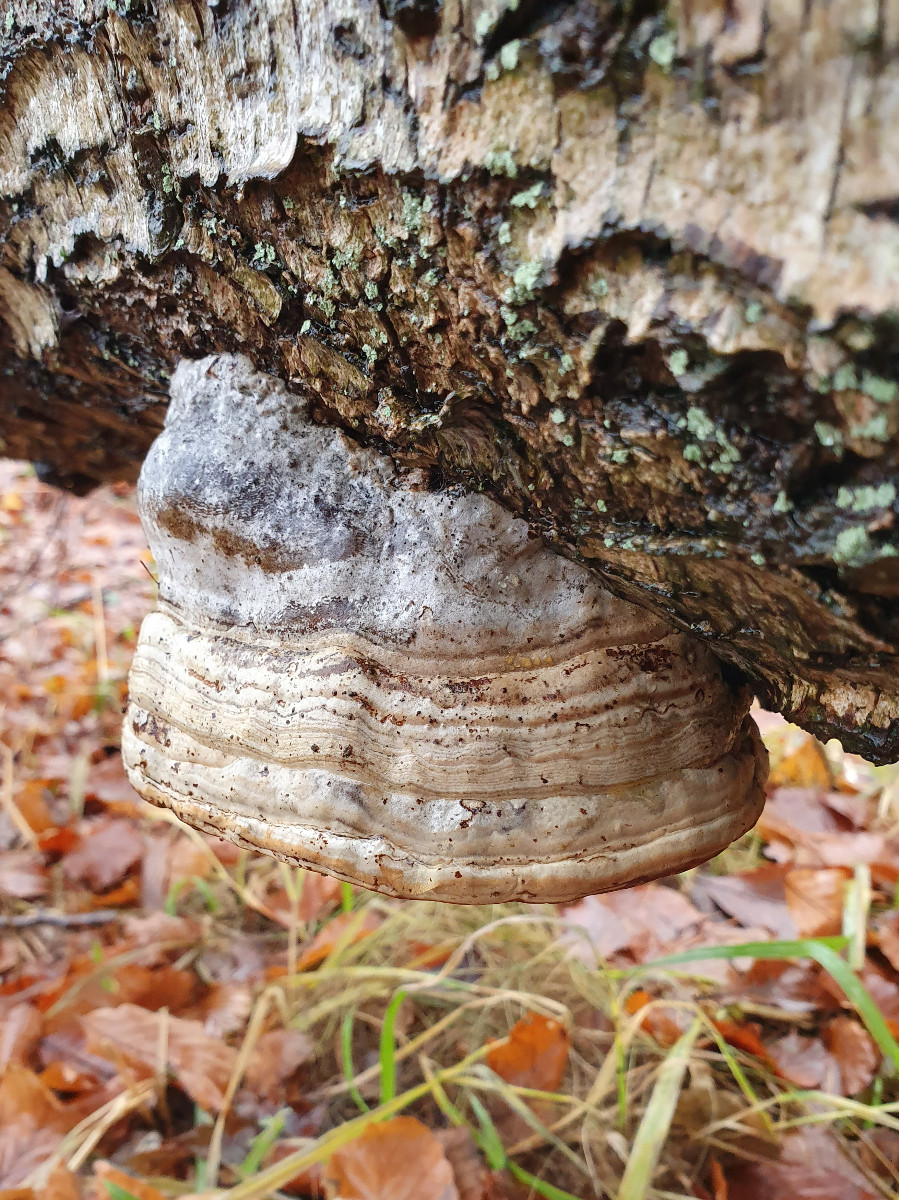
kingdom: Fungi
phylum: Basidiomycota
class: Agaricomycetes
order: Polyporales
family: Polyporaceae
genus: Fomes
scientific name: Fomes fomentarius
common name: tøndersvamp
